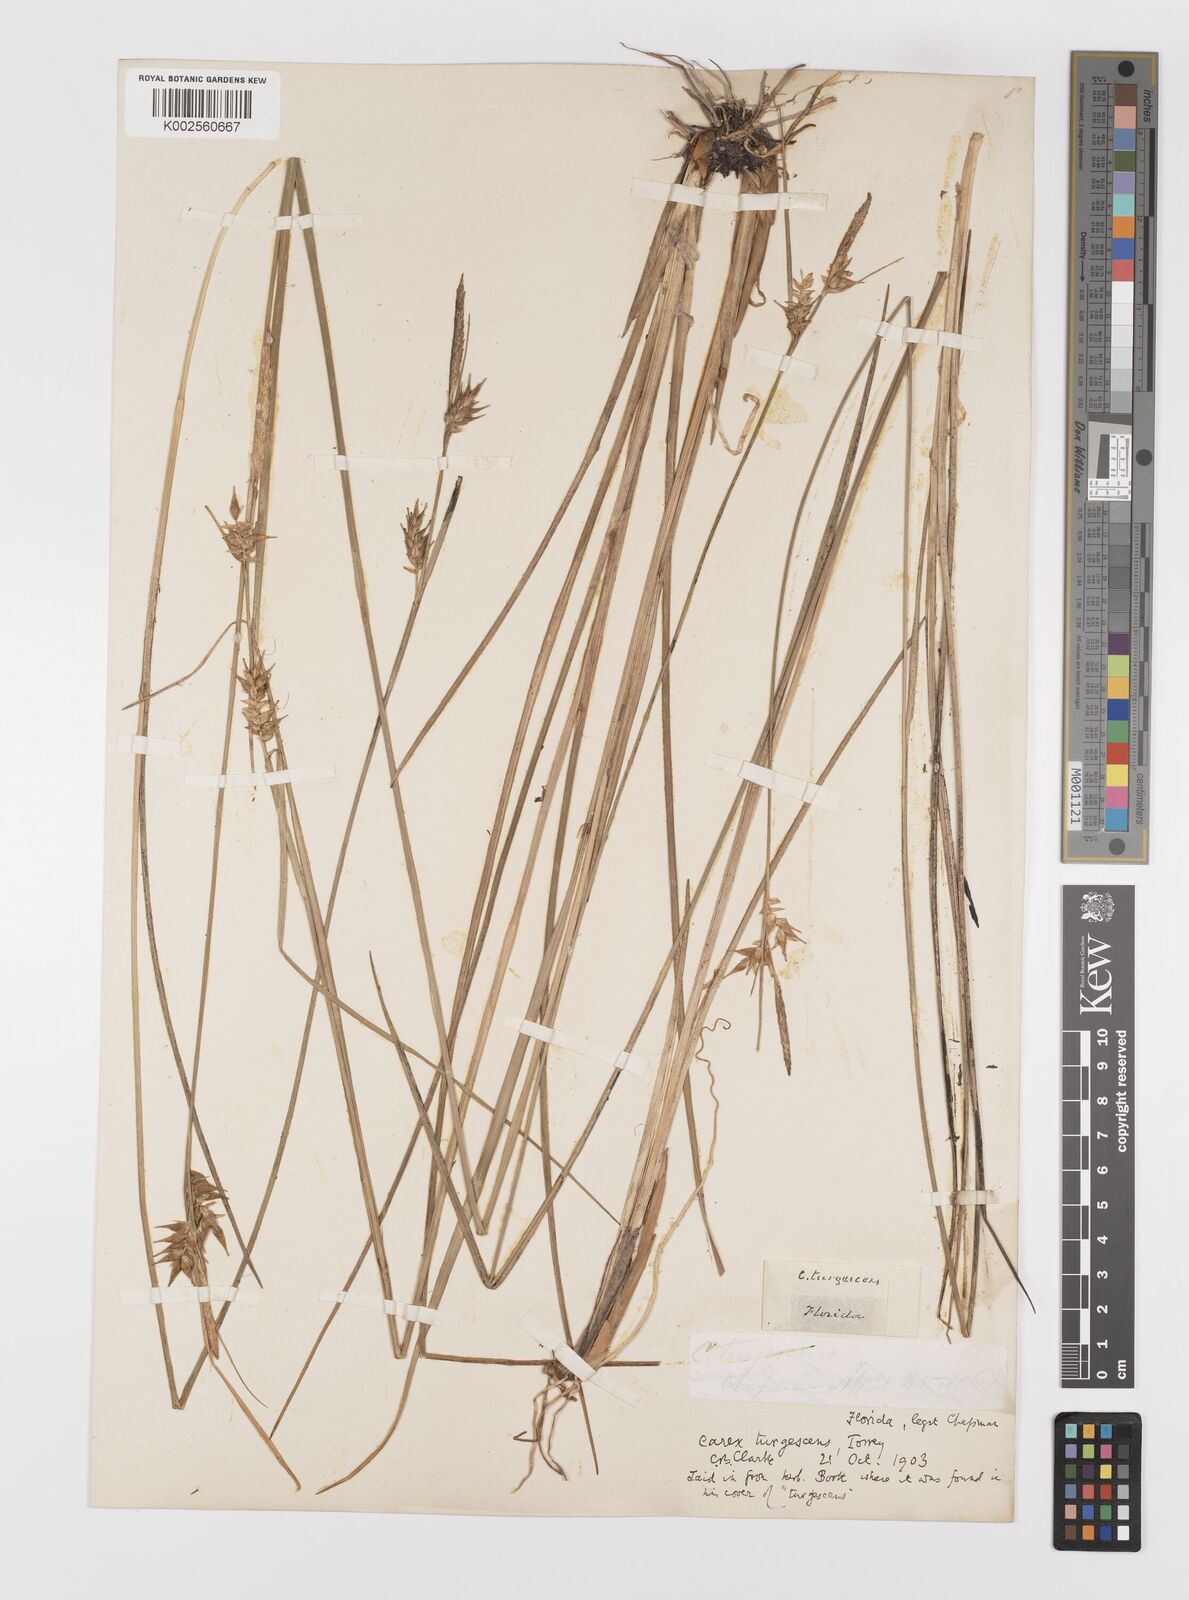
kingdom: Plantae
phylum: Tracheophyta
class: Liliopsida
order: Poales
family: Cyperaceae
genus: Carex
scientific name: Carex turgescens
